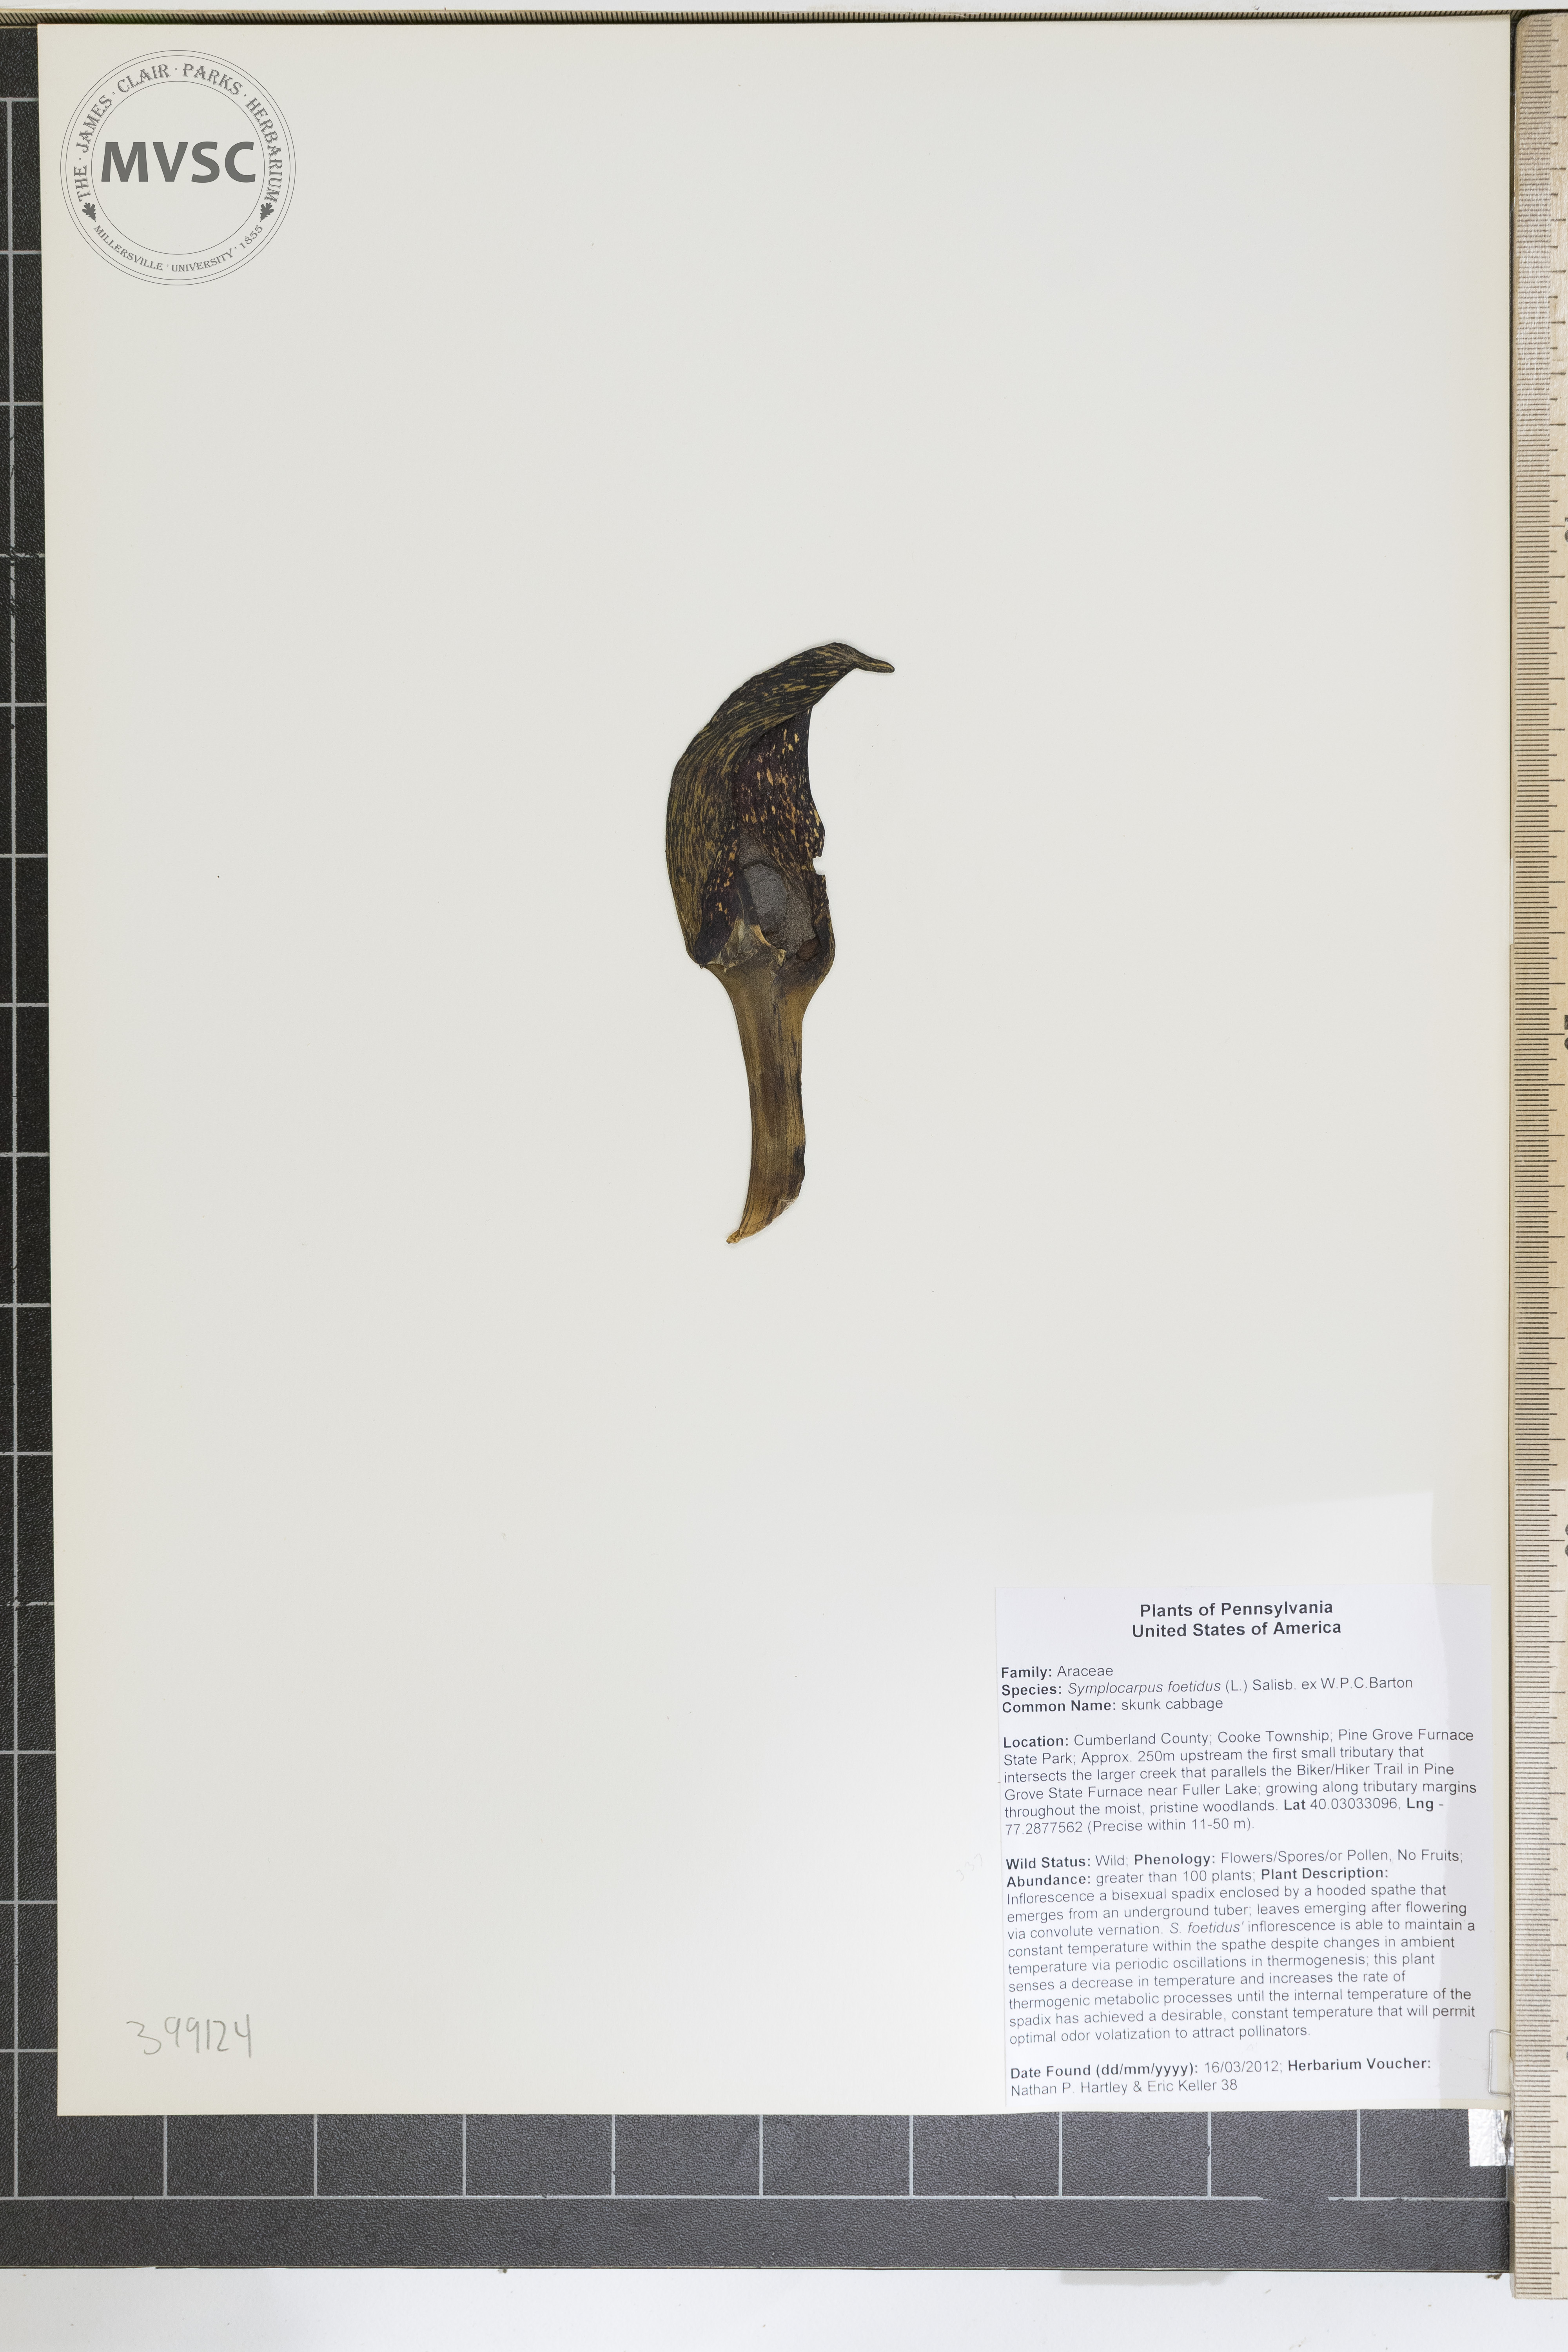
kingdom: Plantae
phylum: Tracheophyta
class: Liliopsida
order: Alismatales
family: Araceae
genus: Symplocarpus
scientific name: Symplocarpus foetidus
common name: Skunk cabbage
